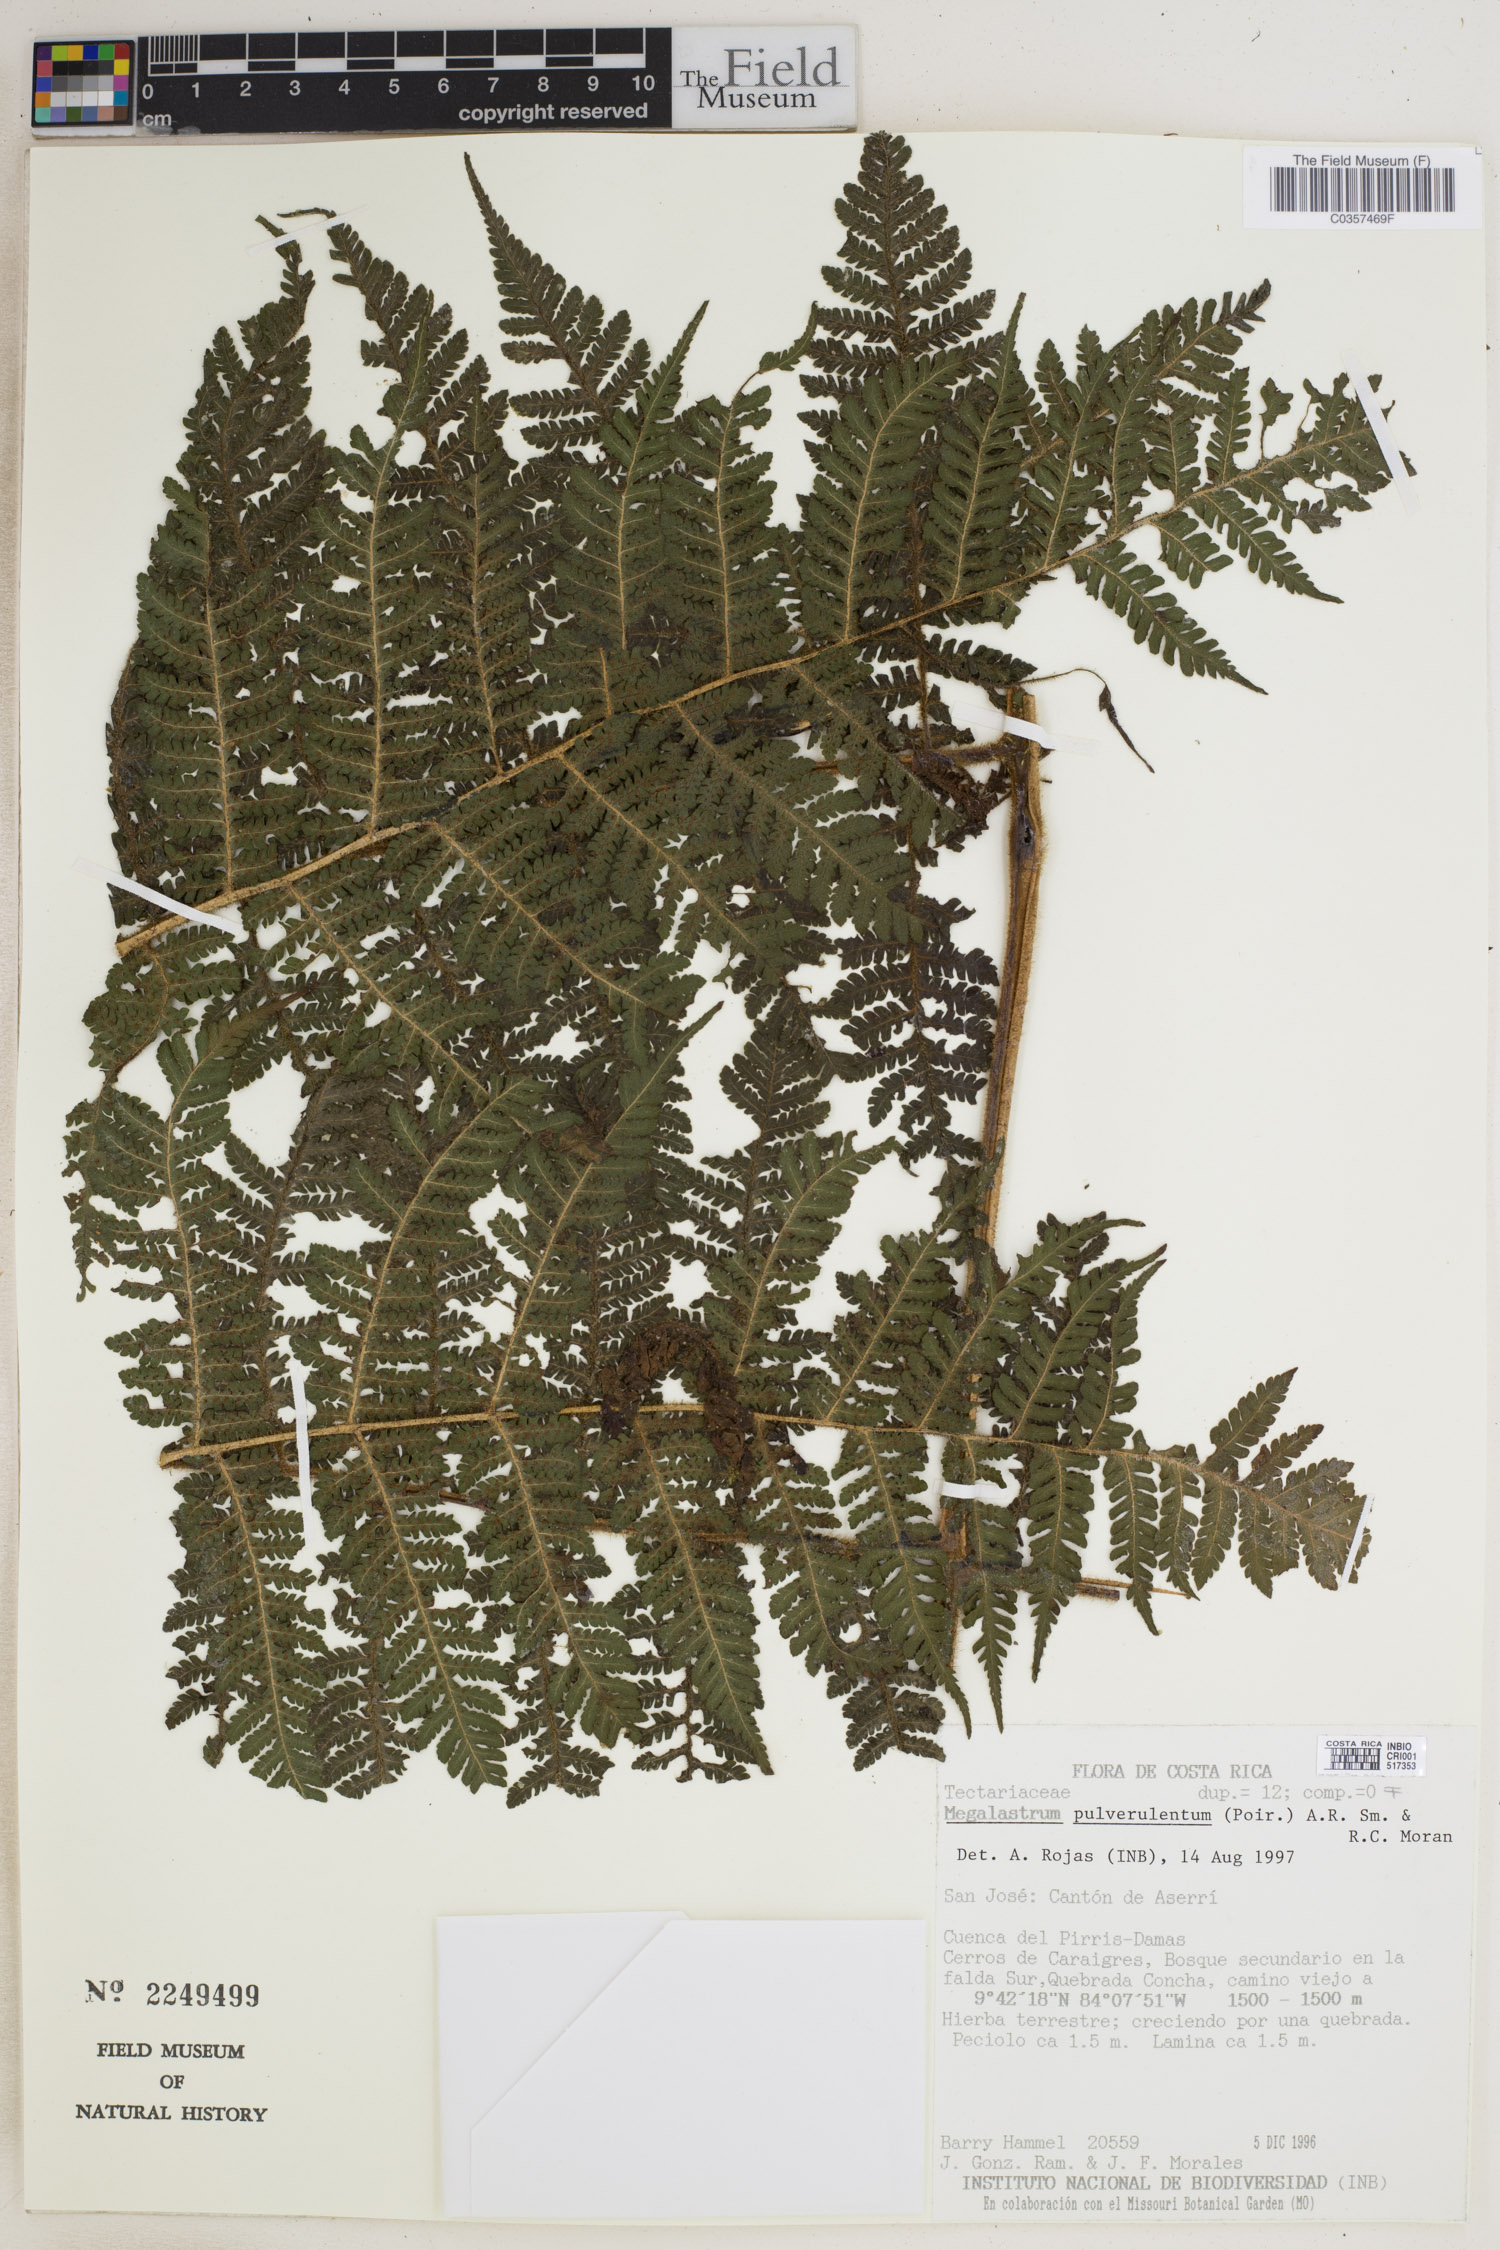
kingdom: Plantae
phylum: Tracheophyta
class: Polypodiopsida
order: Polypodiales
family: Dryopteridaceae
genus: Megalastrum
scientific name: Megalastrum pulverulentum
